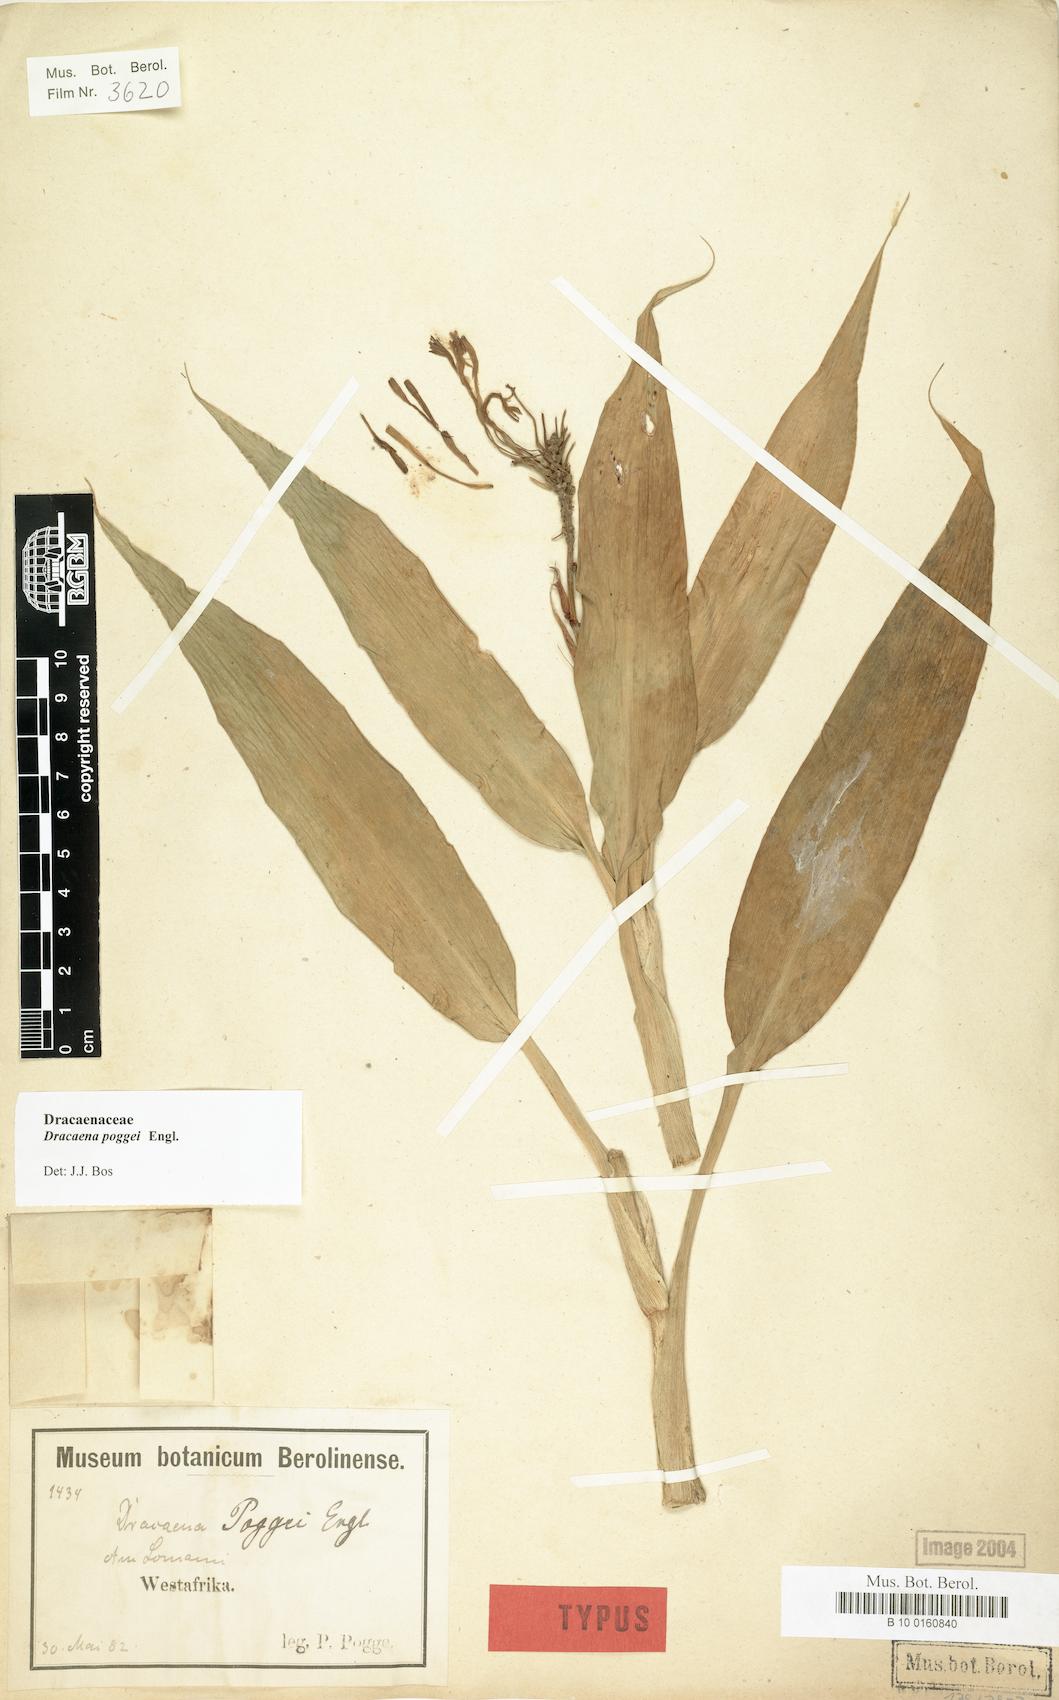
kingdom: Plantae
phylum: Tracheophyta
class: Liliopsida
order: Asparagales
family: Asparagaceae
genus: Dracaena
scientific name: Dracaena sanderiana
